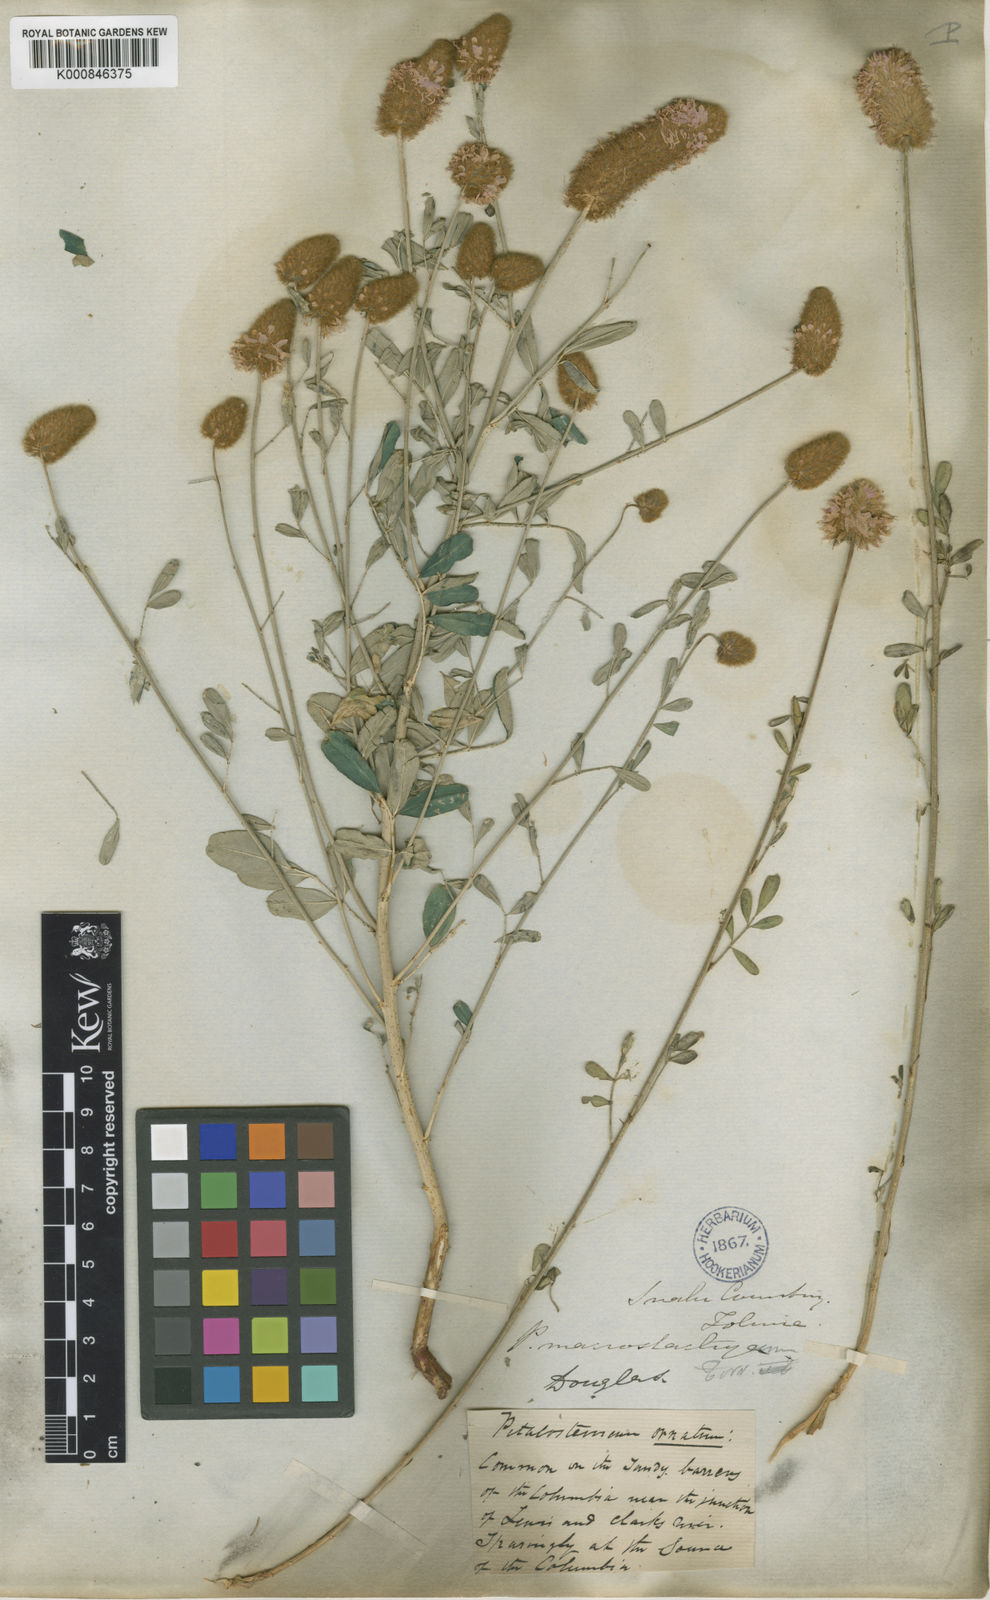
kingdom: Plantae
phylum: Tracheophyta
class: Magnoliopsida
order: Fabales
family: Fabaceae
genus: Dalea
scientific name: Dalea ornata
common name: Blue mountain prairie-clover
